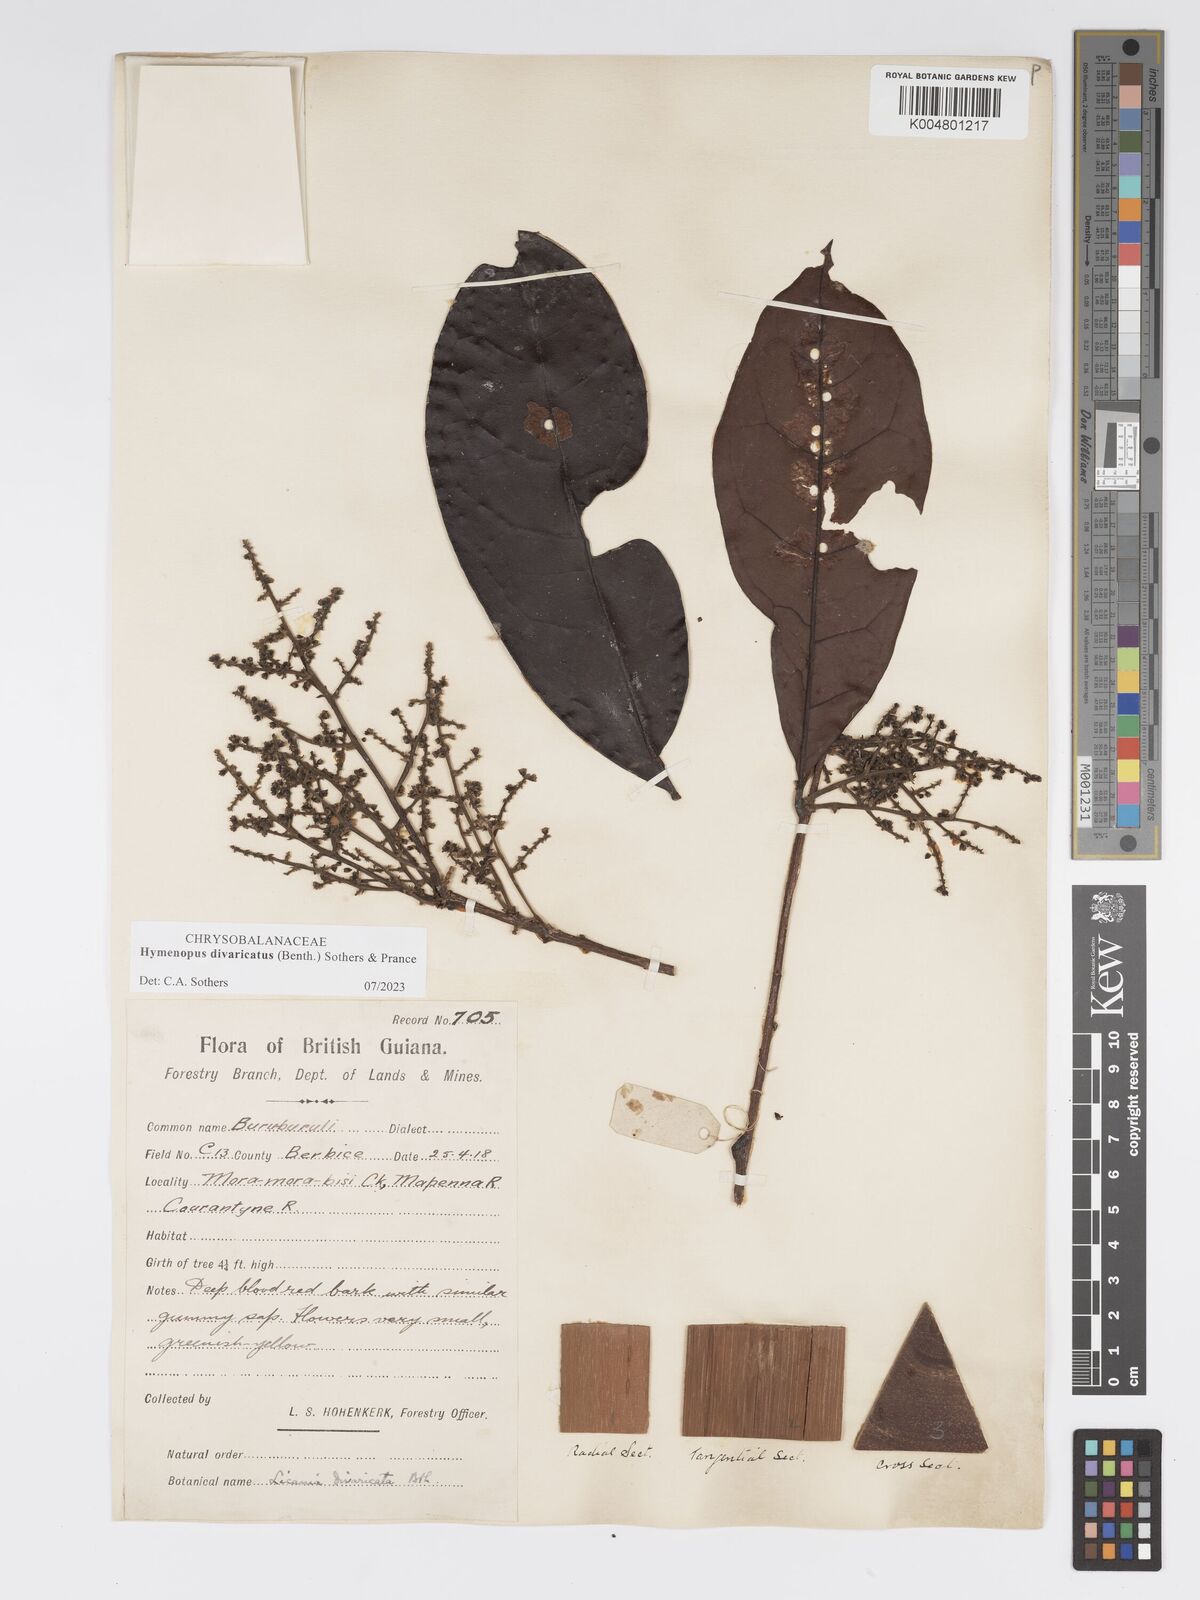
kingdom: Plantae
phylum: Tracheophyta
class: Magnoliopsida
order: Malpighiales
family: Chrysobalanaceae
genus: Hymenopus
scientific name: Hymenopus divaricatus
